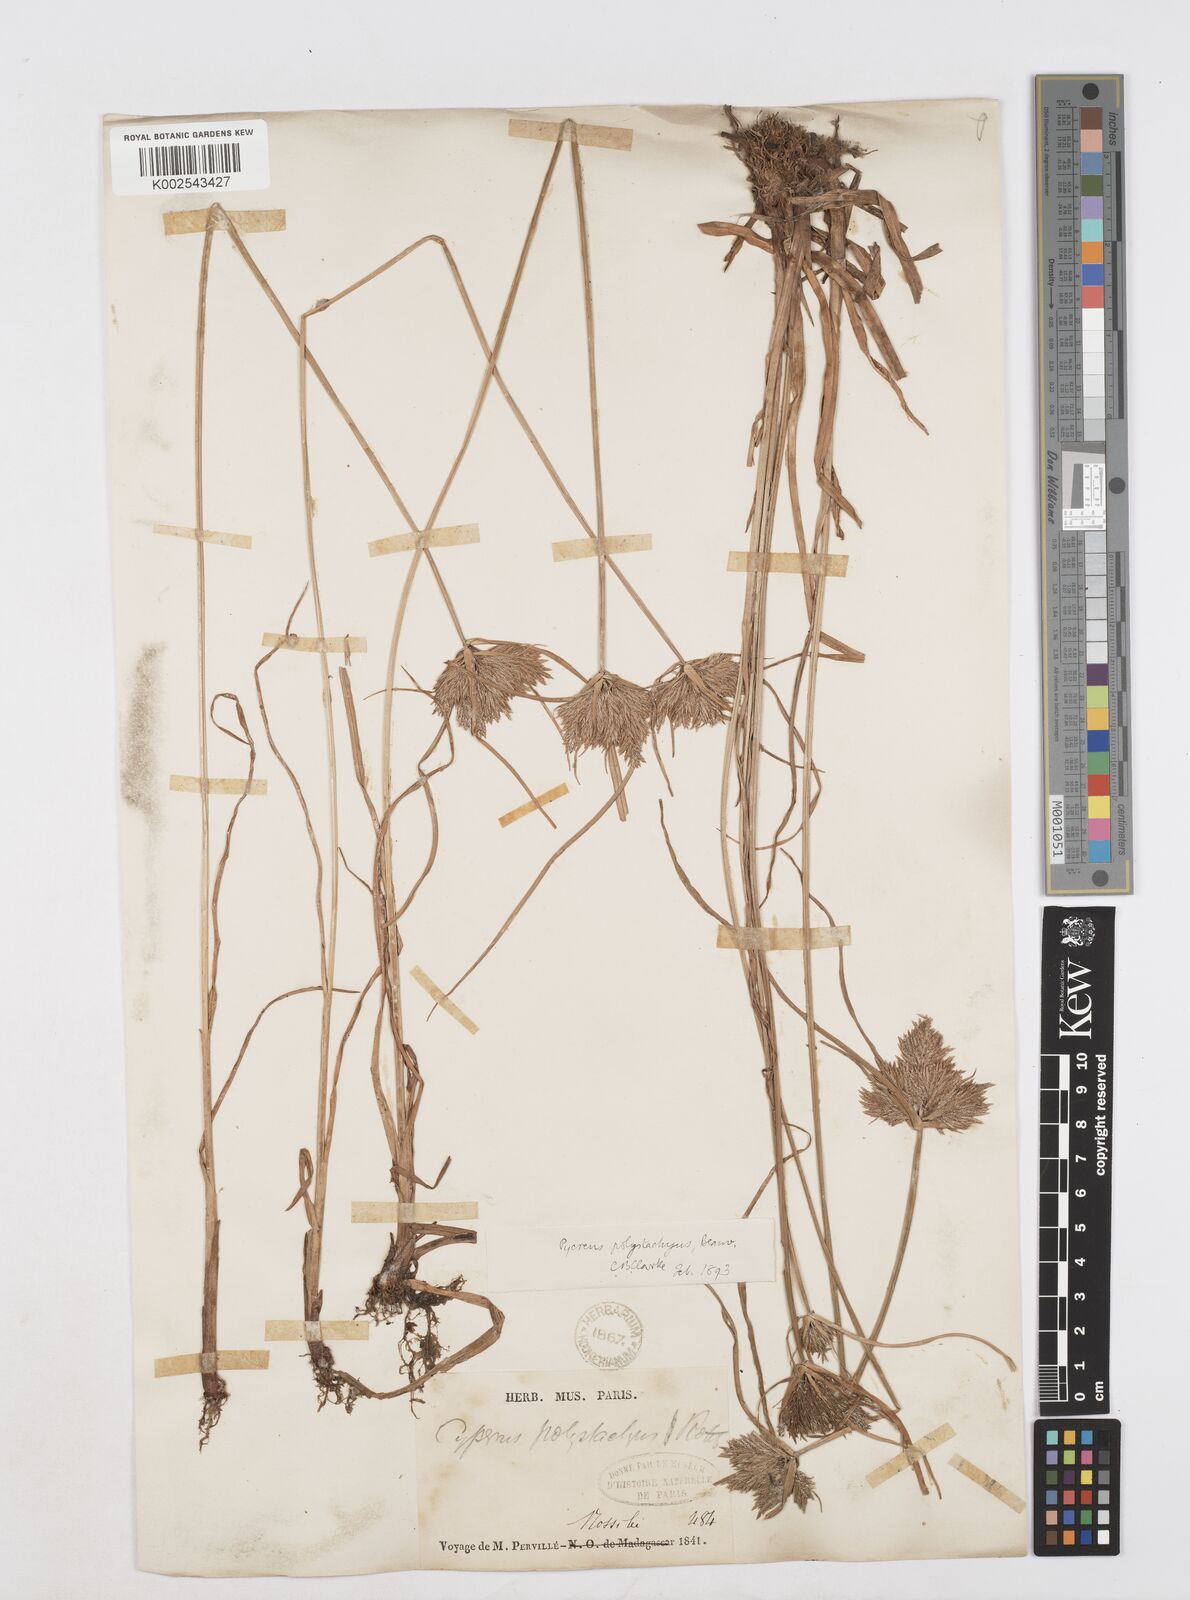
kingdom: Plantae
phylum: Tracheophyta
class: Liliopsida
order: Poales
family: Cyperaceae
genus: Cyperus
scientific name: Cyperus polystachyos
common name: Bunchy flat sedge
